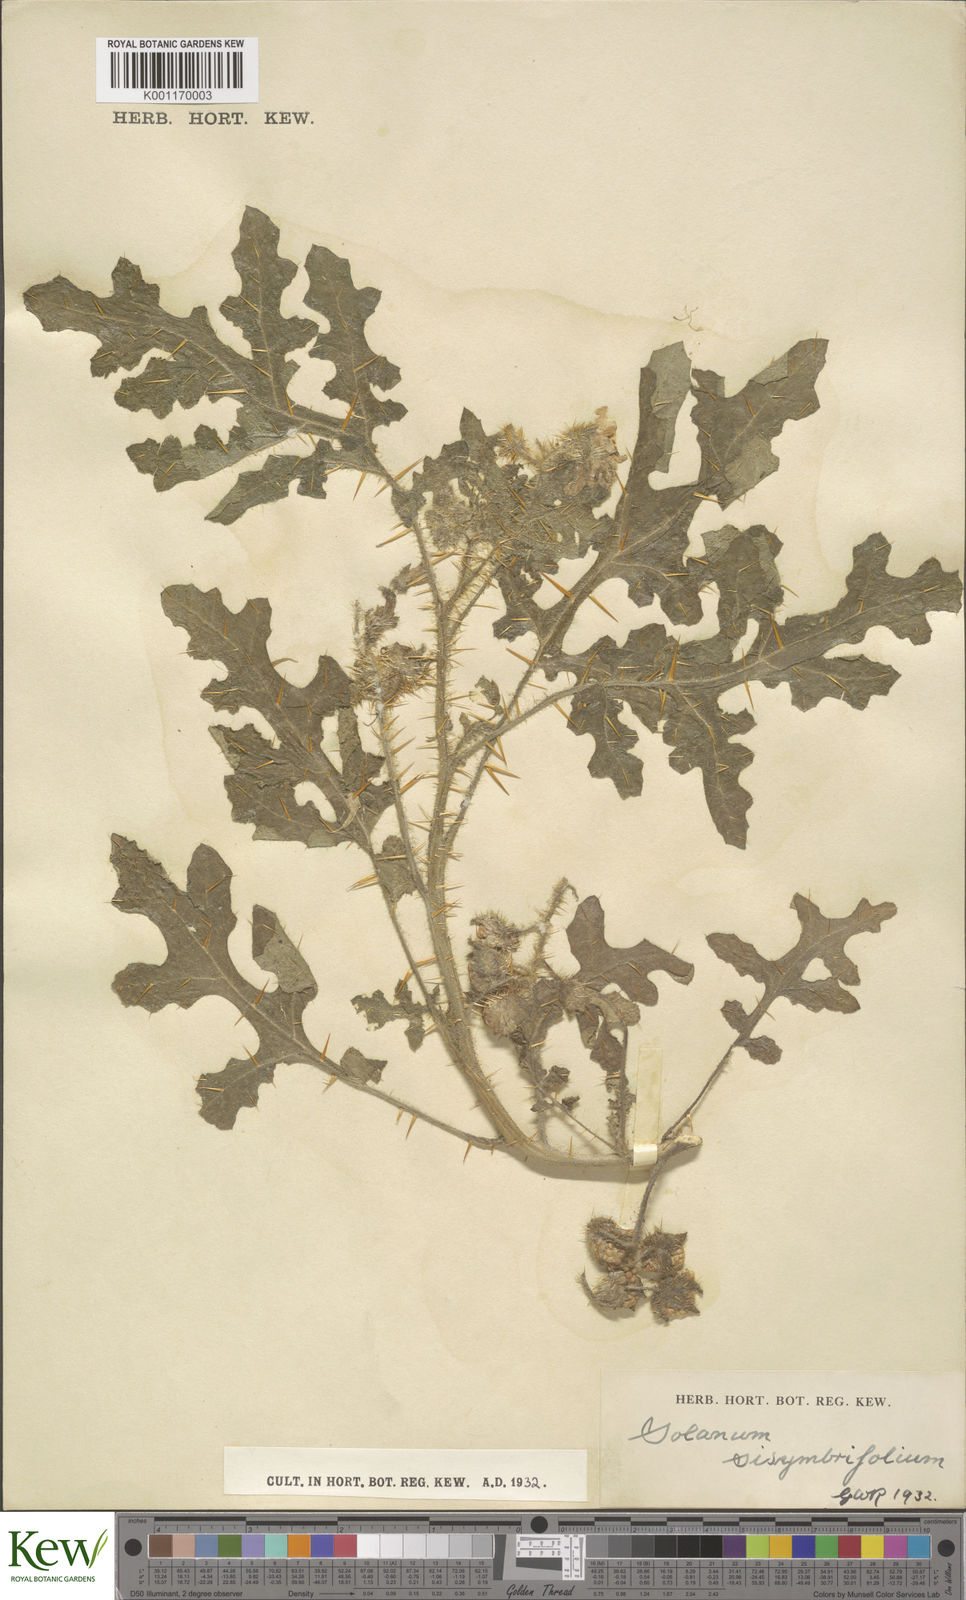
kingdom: Plantae
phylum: Tracheophyta
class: Magnoliopsida
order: Solanales
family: Solanaceae
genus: Solanum
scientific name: Solanum sisymbriifolium
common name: Red buffalo-bur
